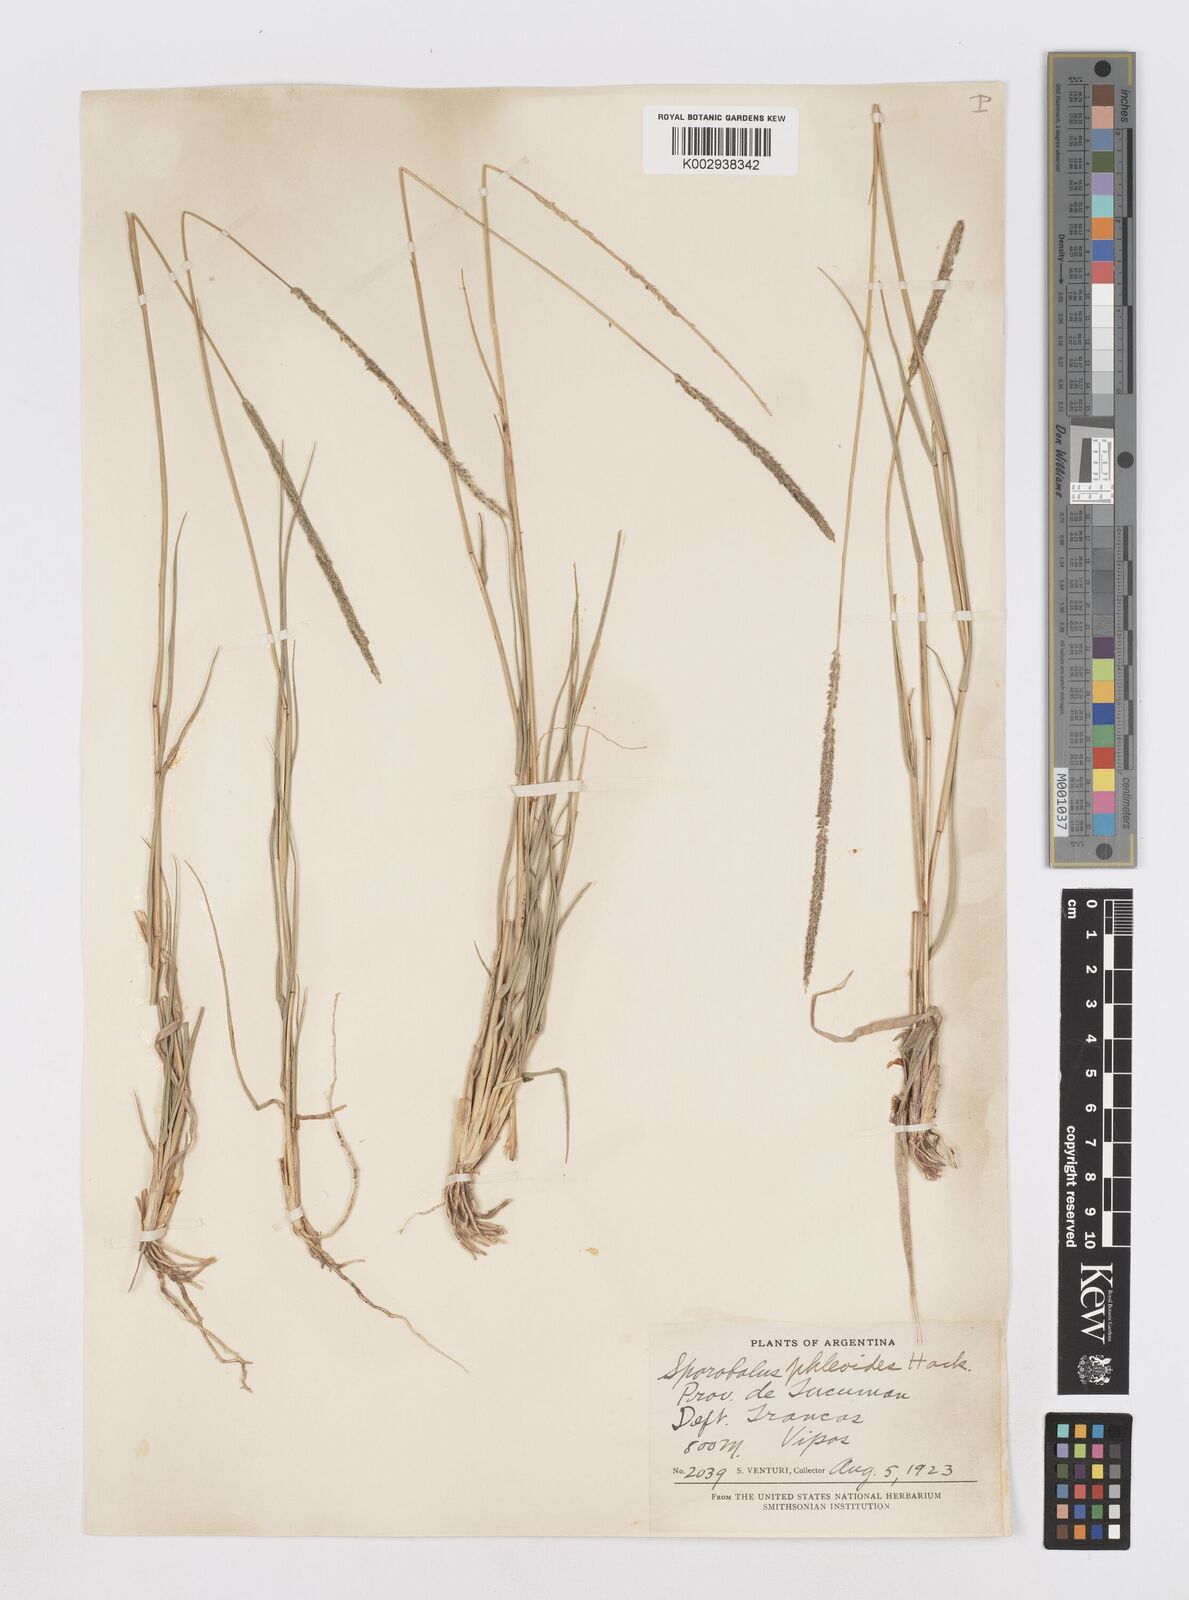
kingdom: Plantae
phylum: Tracheophyta
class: Liliopsida
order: Poales
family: Poaceae
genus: Sporobolus
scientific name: Sporobolus phleoides
